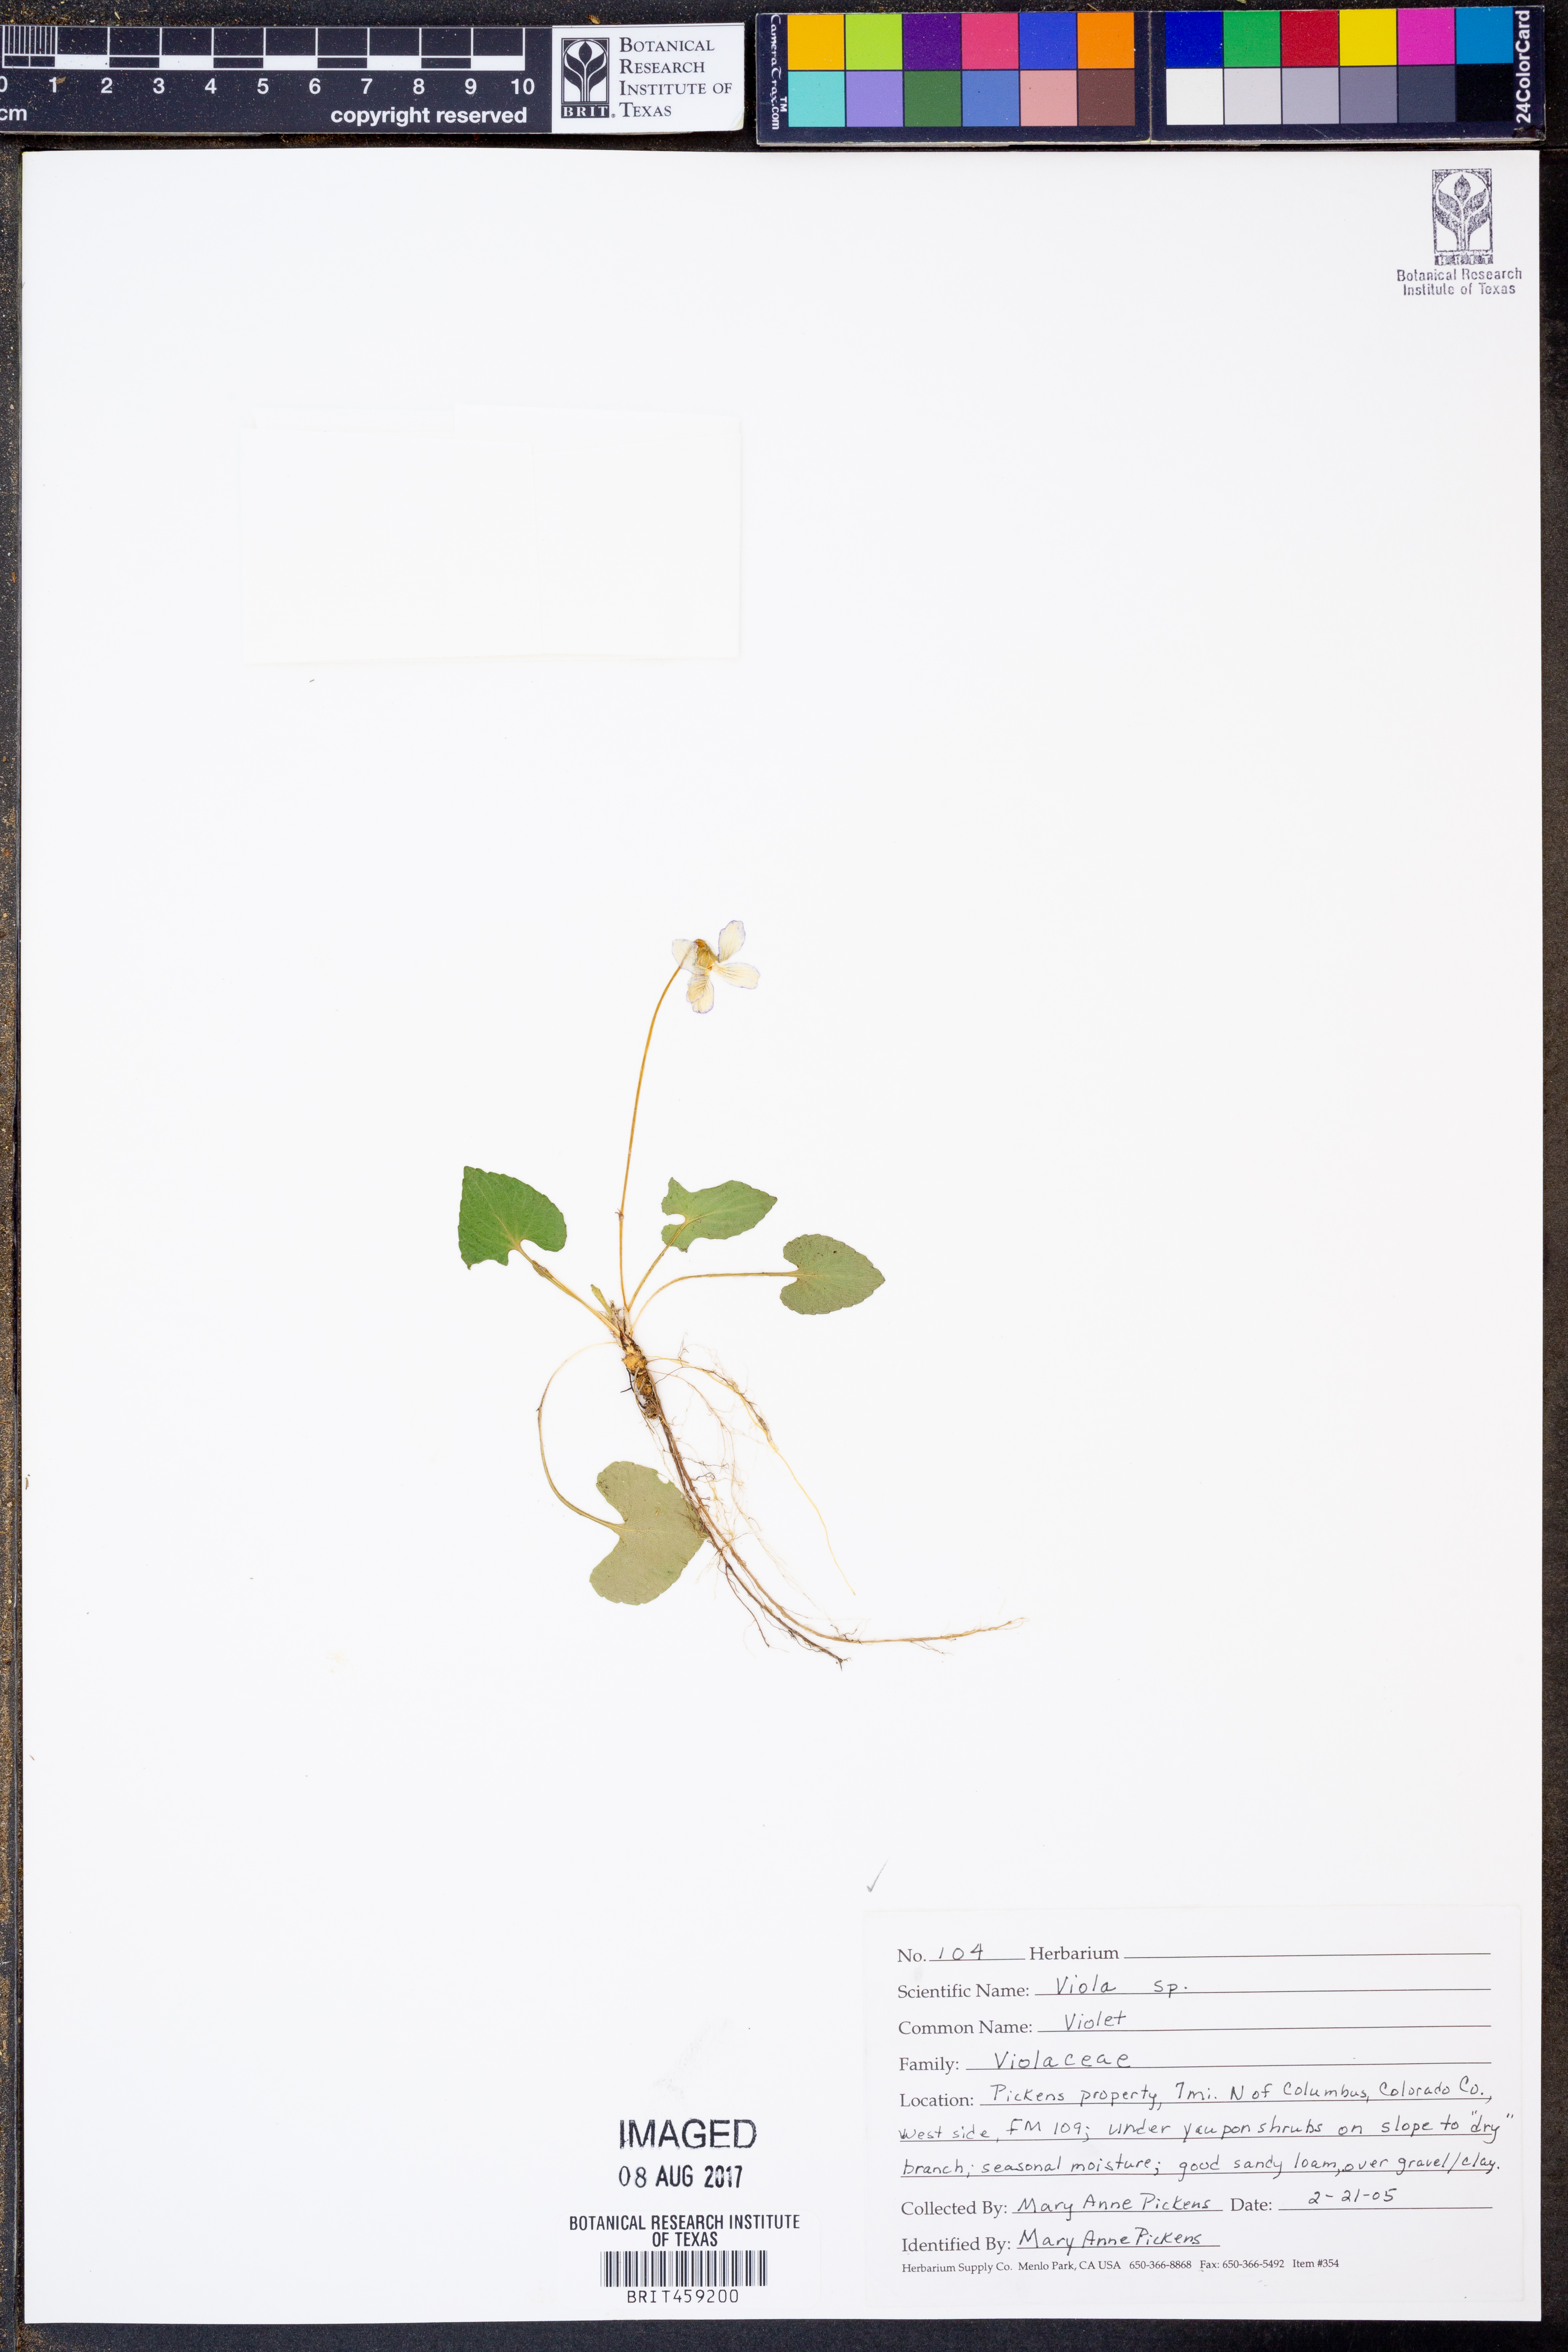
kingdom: Plantae
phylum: Tracheophyta
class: Magnoliopsida
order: Malpighiales
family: Violaceae
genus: Viola
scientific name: Viola
